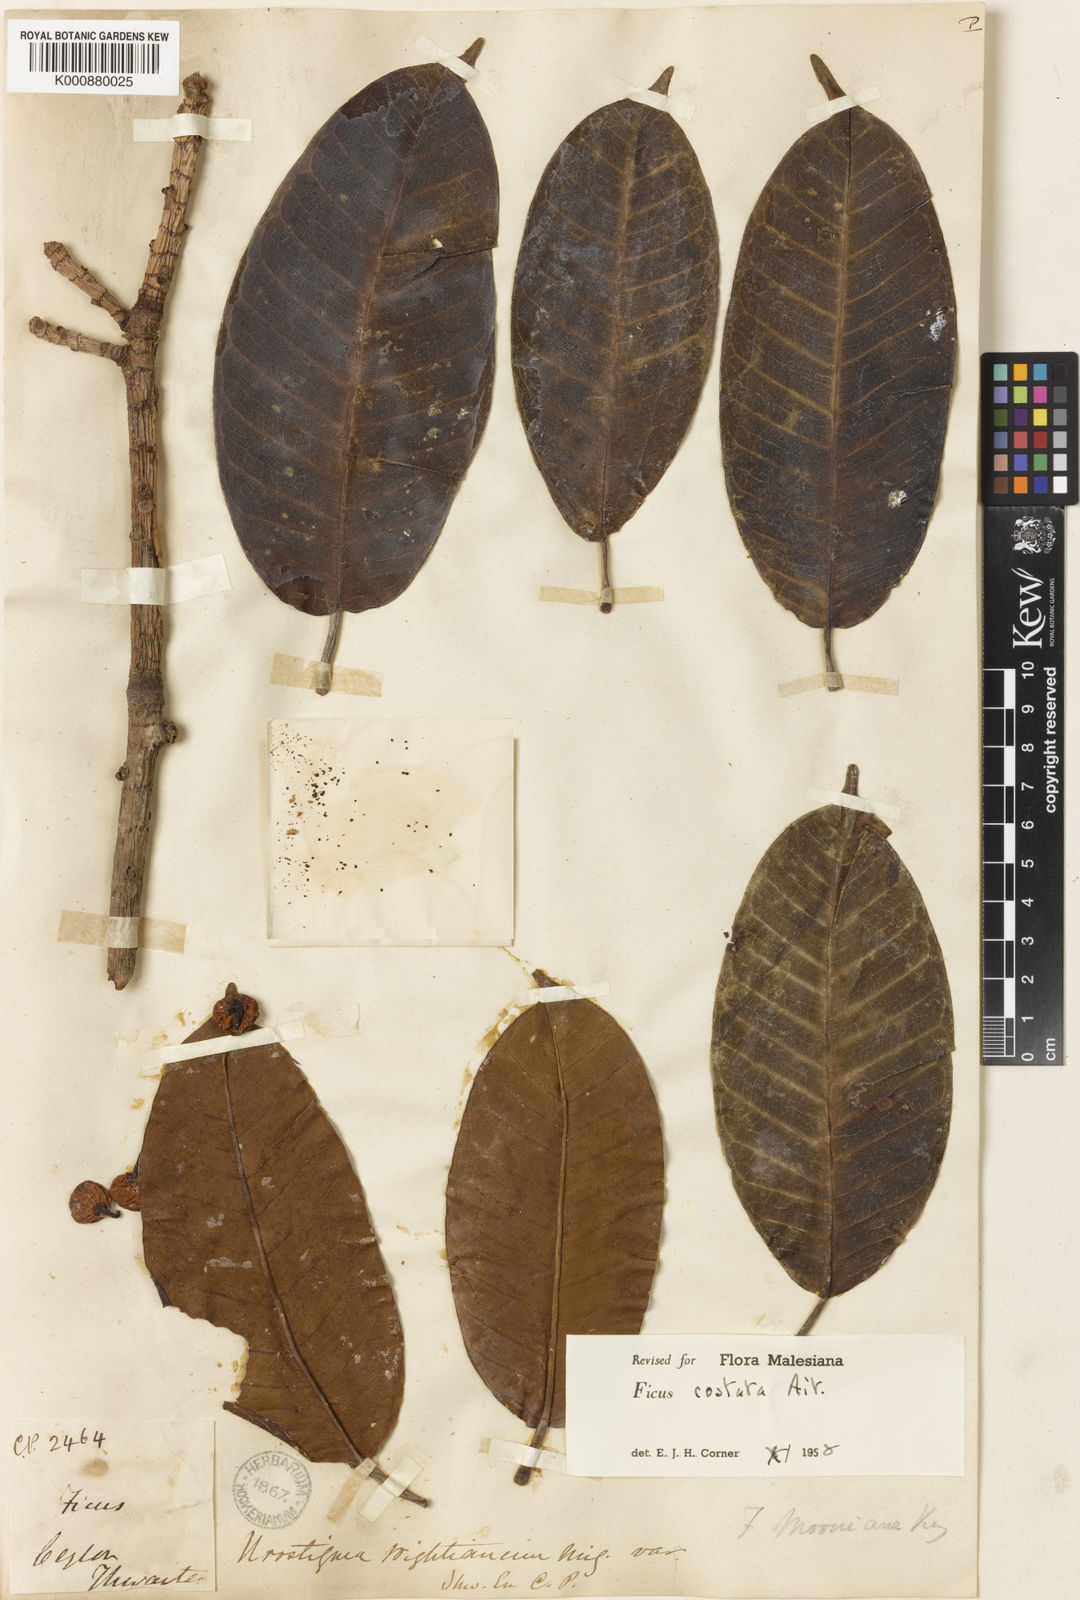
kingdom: Plantae
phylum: Tracheophyta
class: Magnoliopsida
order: Rosales
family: Moraceae
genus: Ficus
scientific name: Ficus costata
